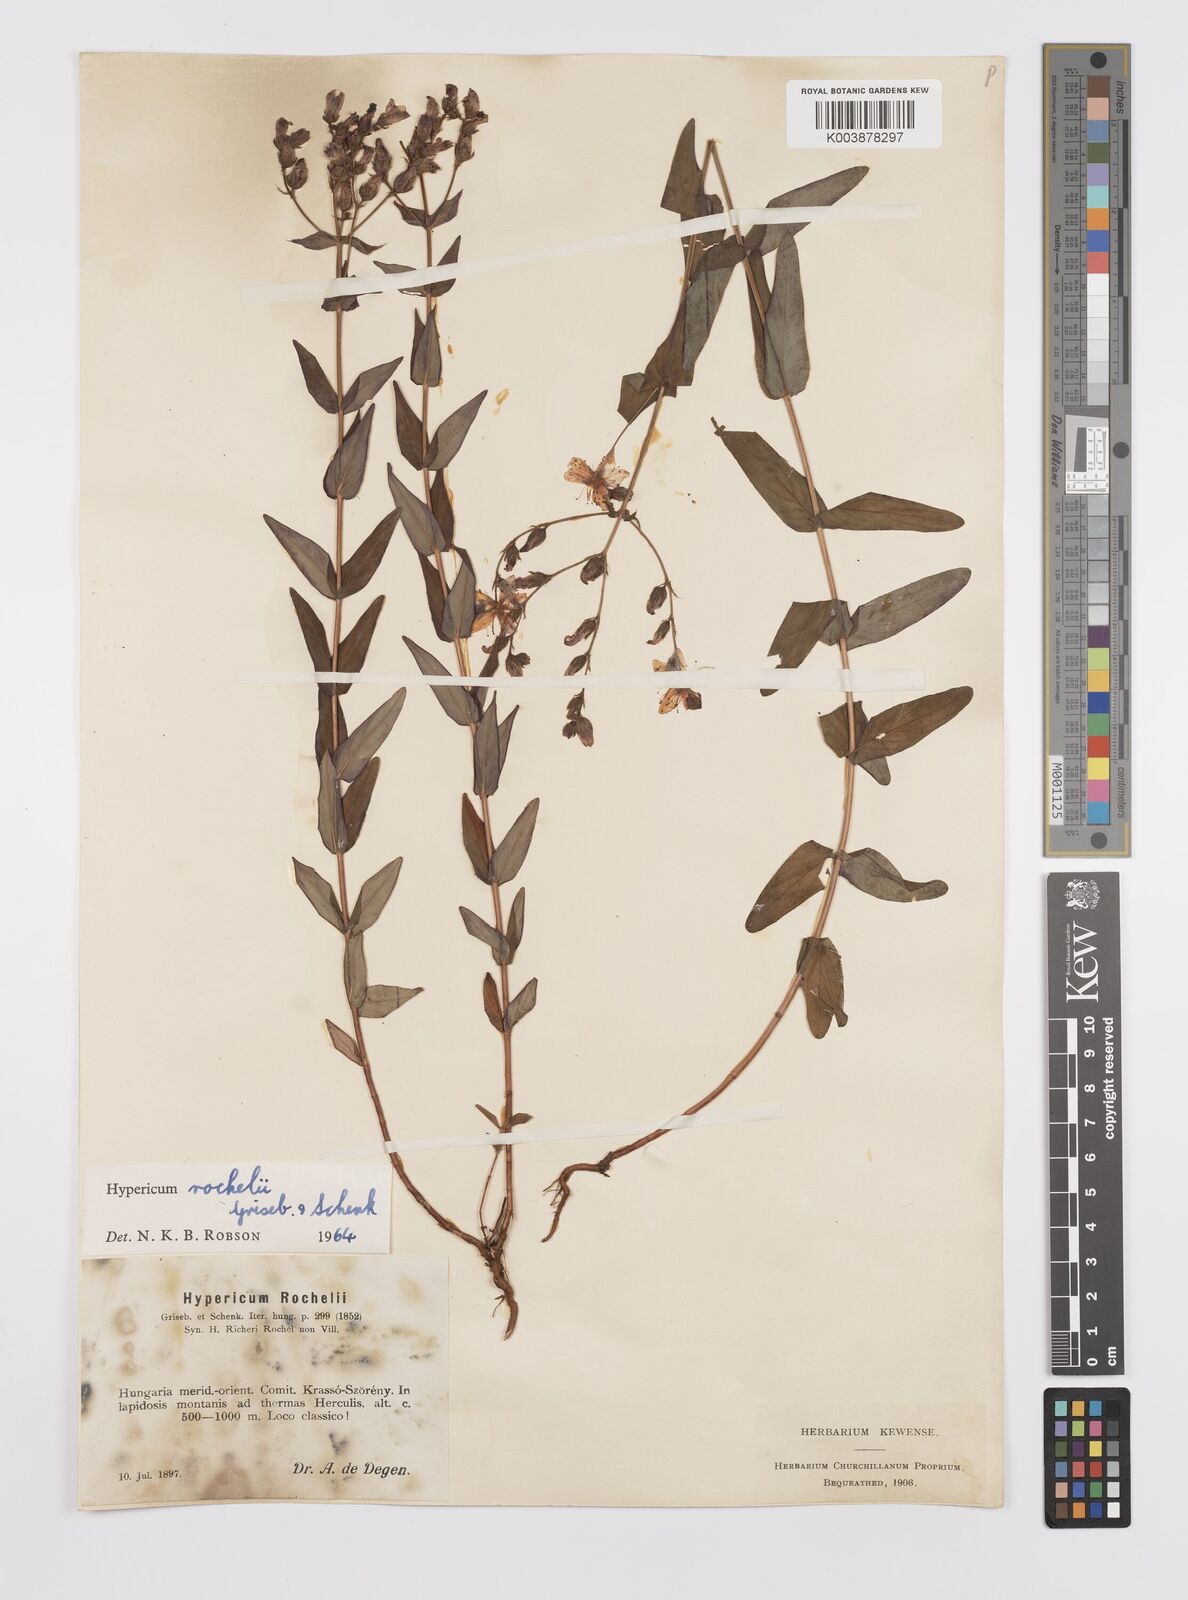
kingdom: Plantae
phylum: Tracheophyta
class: Magnoliopsida
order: Malpighiales
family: Hypericaceae
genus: Hypericum
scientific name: Hypericum rochelii
